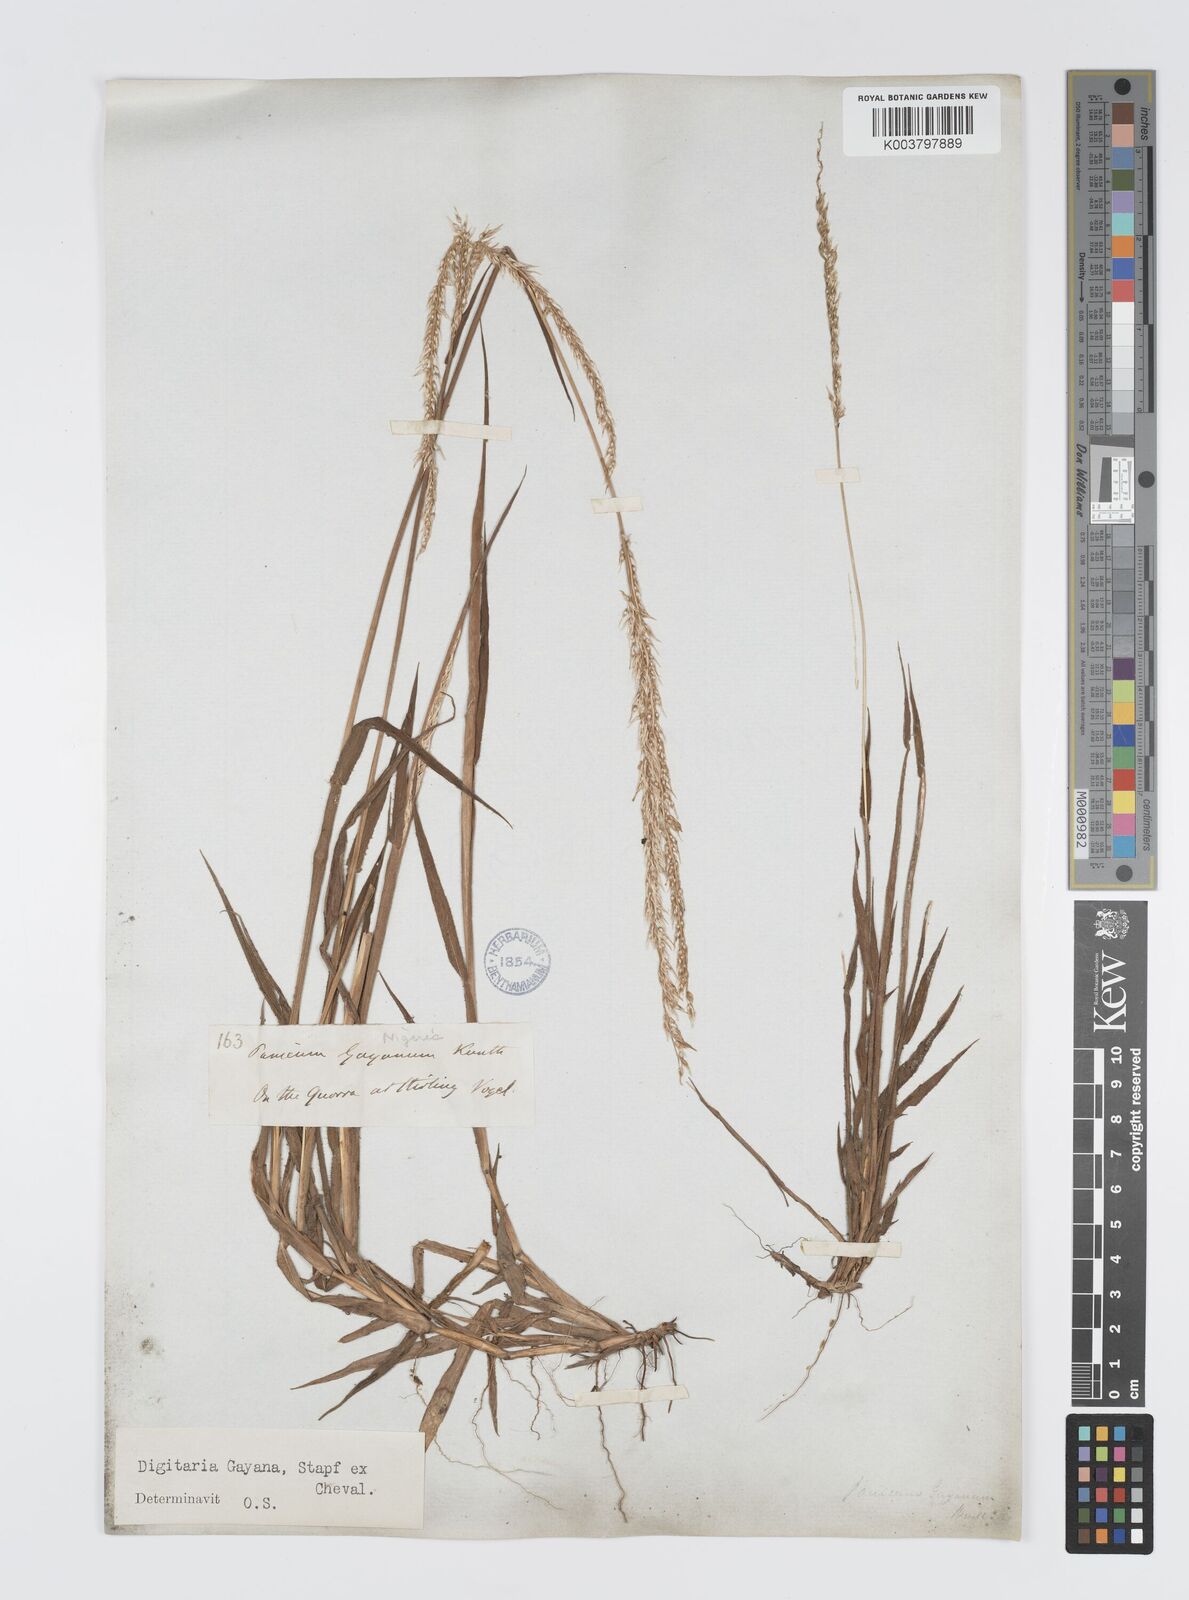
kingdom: Plantae
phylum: Tracheophyta
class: Liliopsida
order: Poales
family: Poaceae
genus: Digitaria
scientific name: Digitaria gayana
